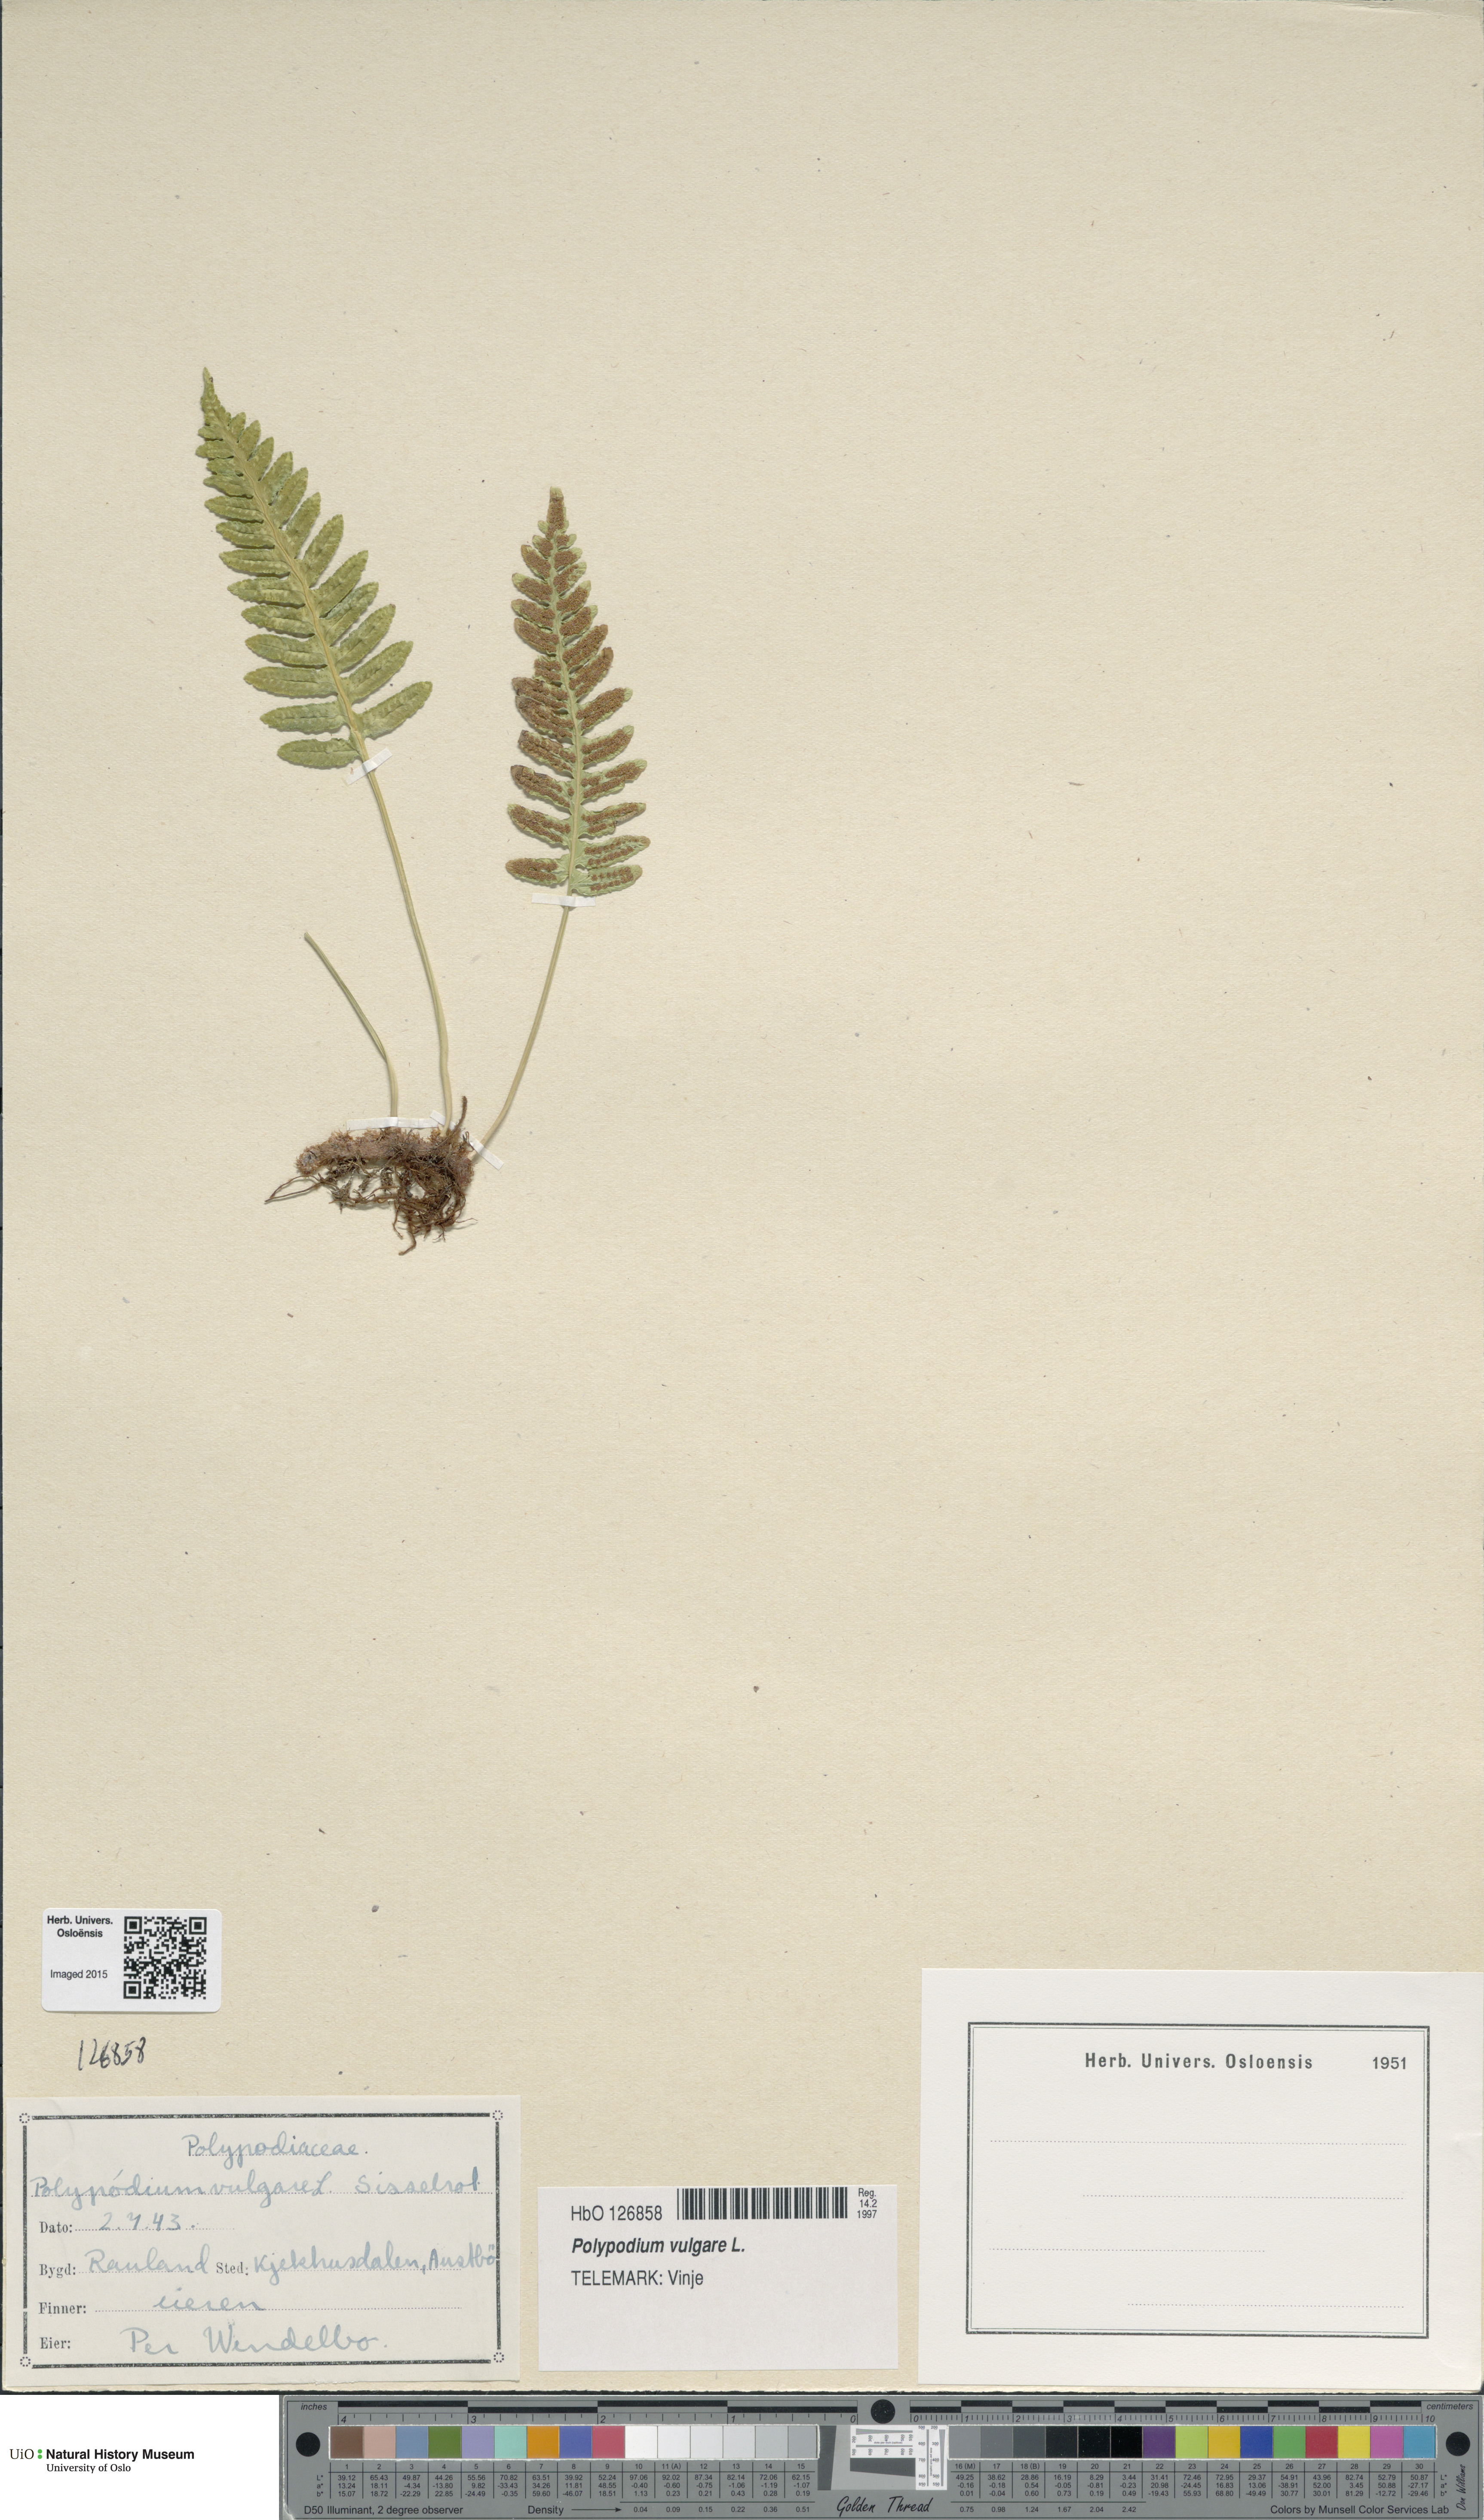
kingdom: Plantae
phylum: Tracheophyta
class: Polypodiopsida
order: Polypodiales
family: Polypodiaceae
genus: Polypodium
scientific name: Polypodium vulgare
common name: Common polypody
